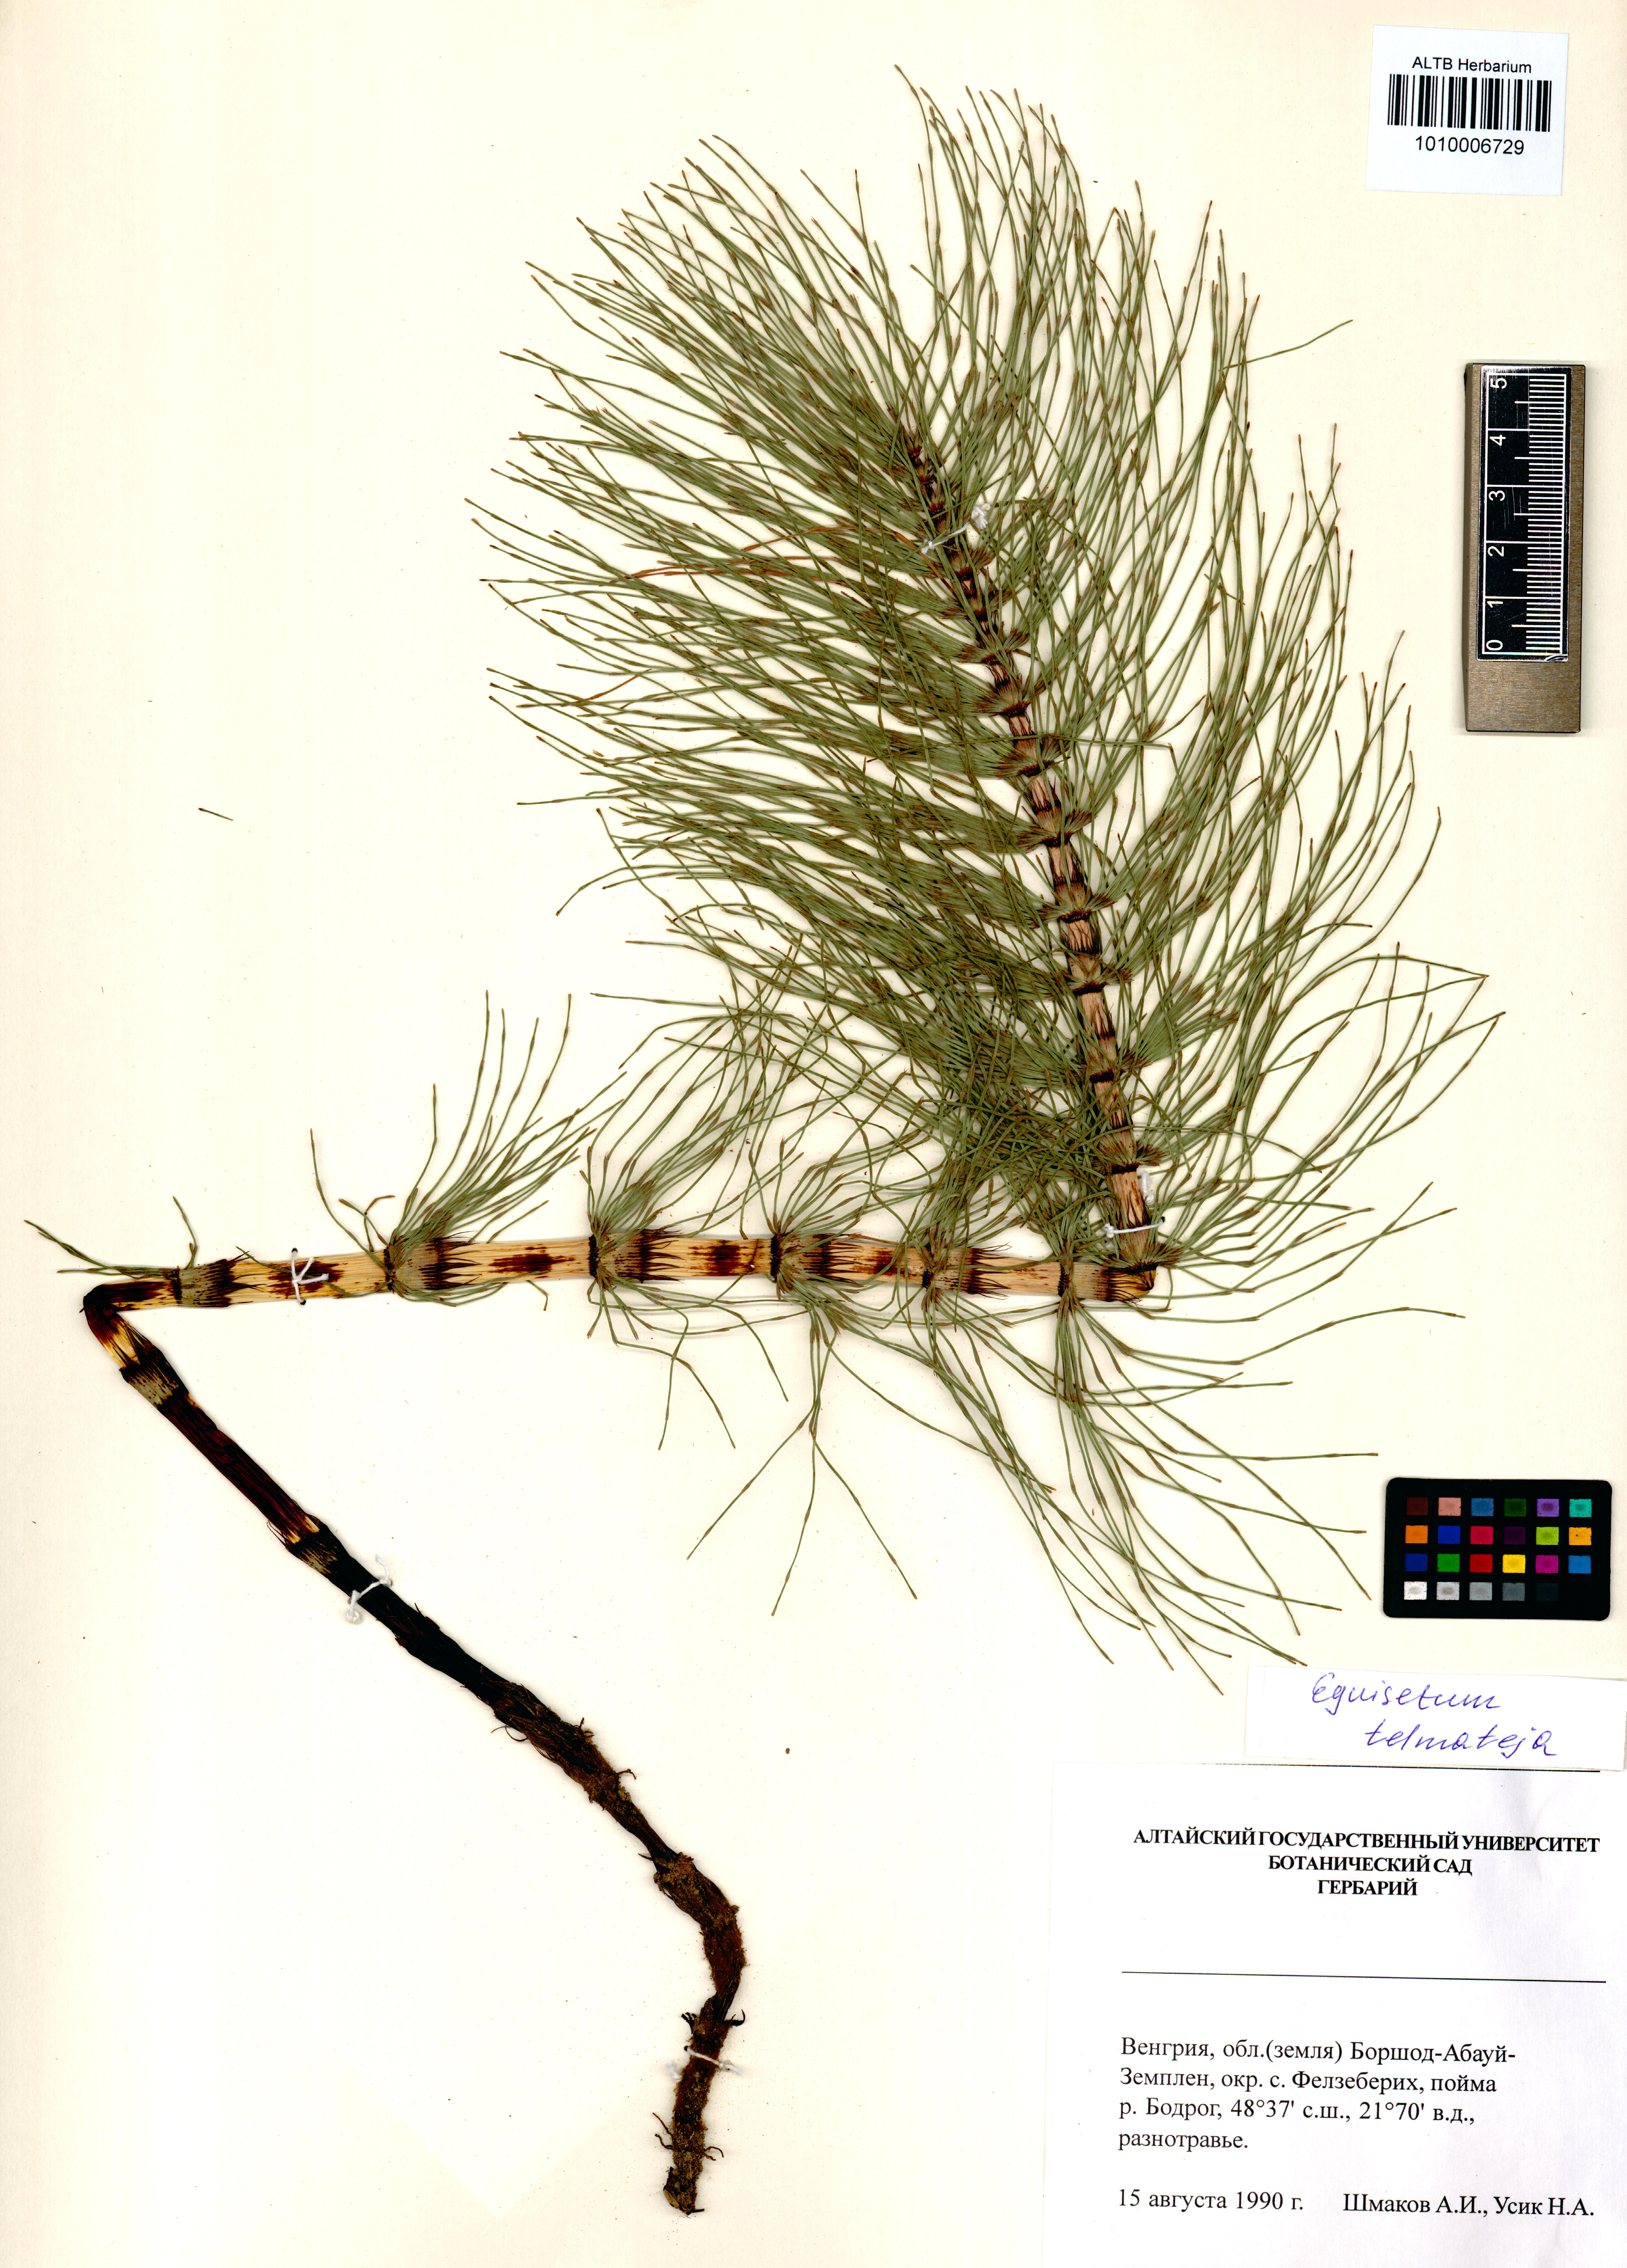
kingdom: Plantae
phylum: Tracheophyta
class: Polypodiopsida
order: Equisetales
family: Equisetaceae
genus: Equisetum
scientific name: Equisetum telmateia
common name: Great horsetail
